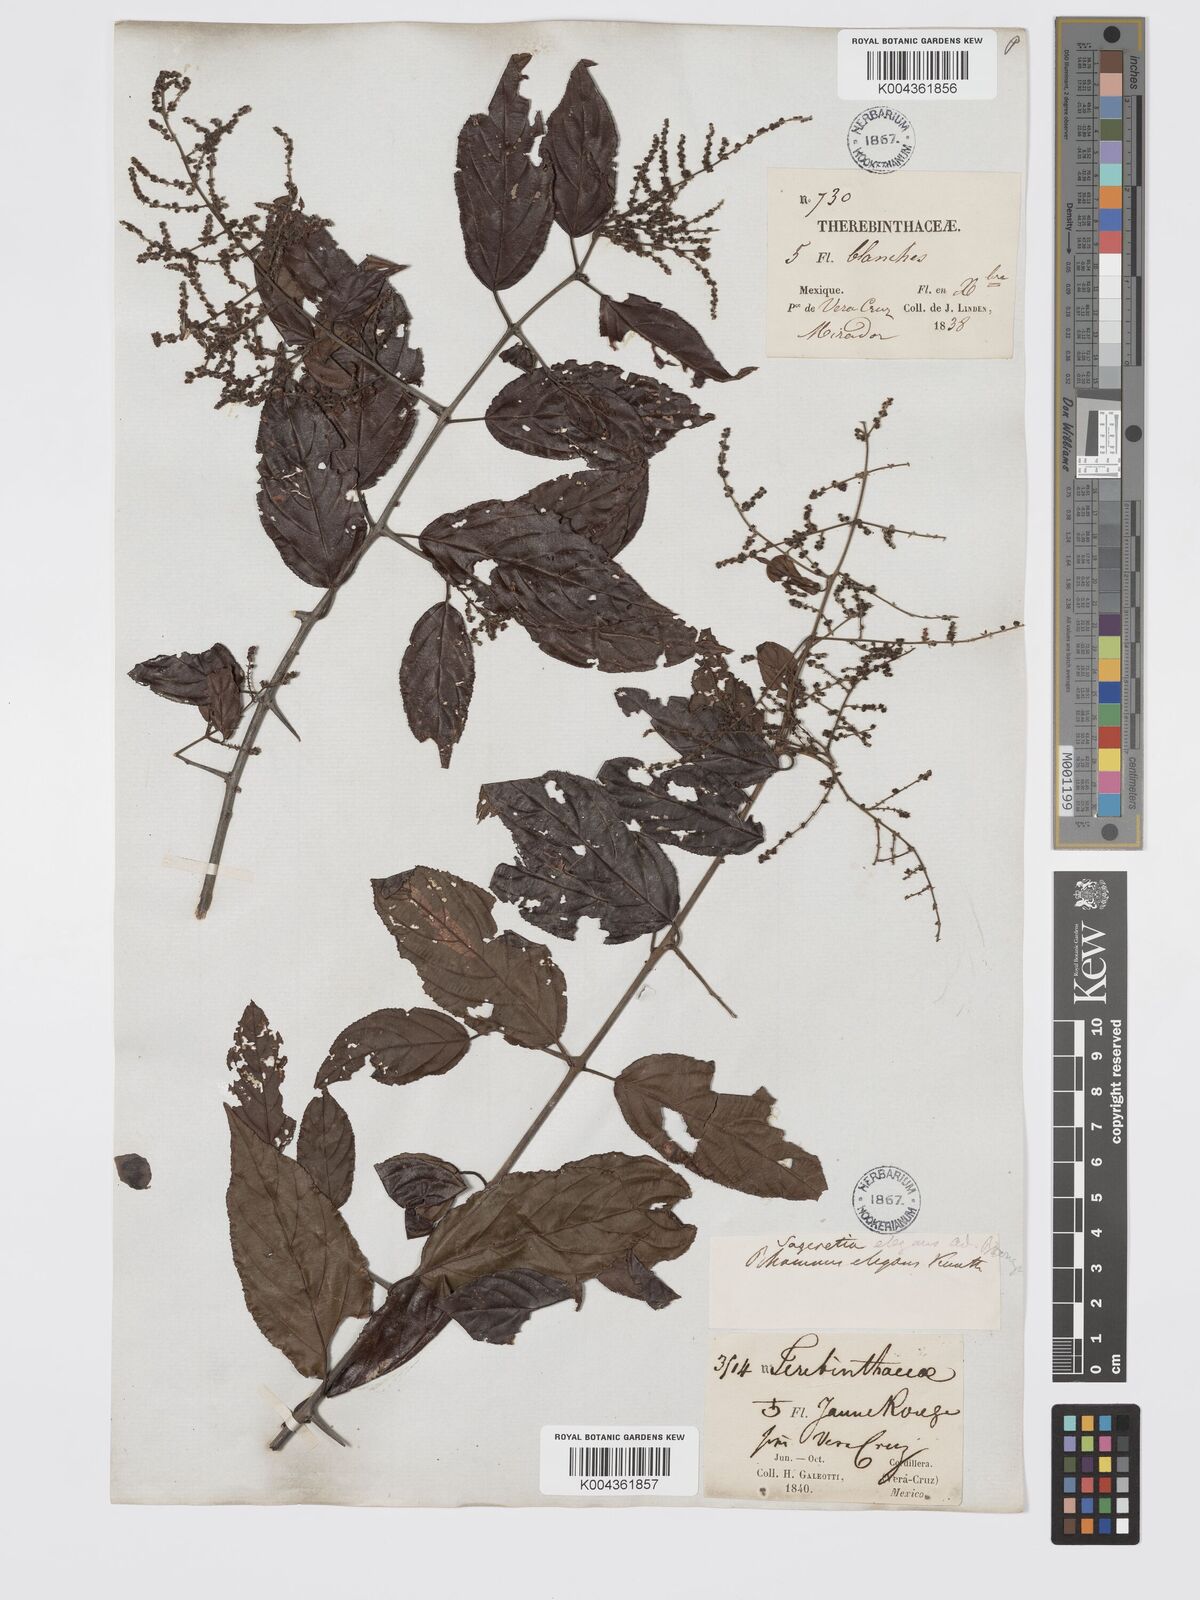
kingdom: Plantae
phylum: Tracheophyta
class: Magnoliopsida
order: Rosales
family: Rhamnaceae
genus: Sageretia
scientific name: Sageretia elegans
